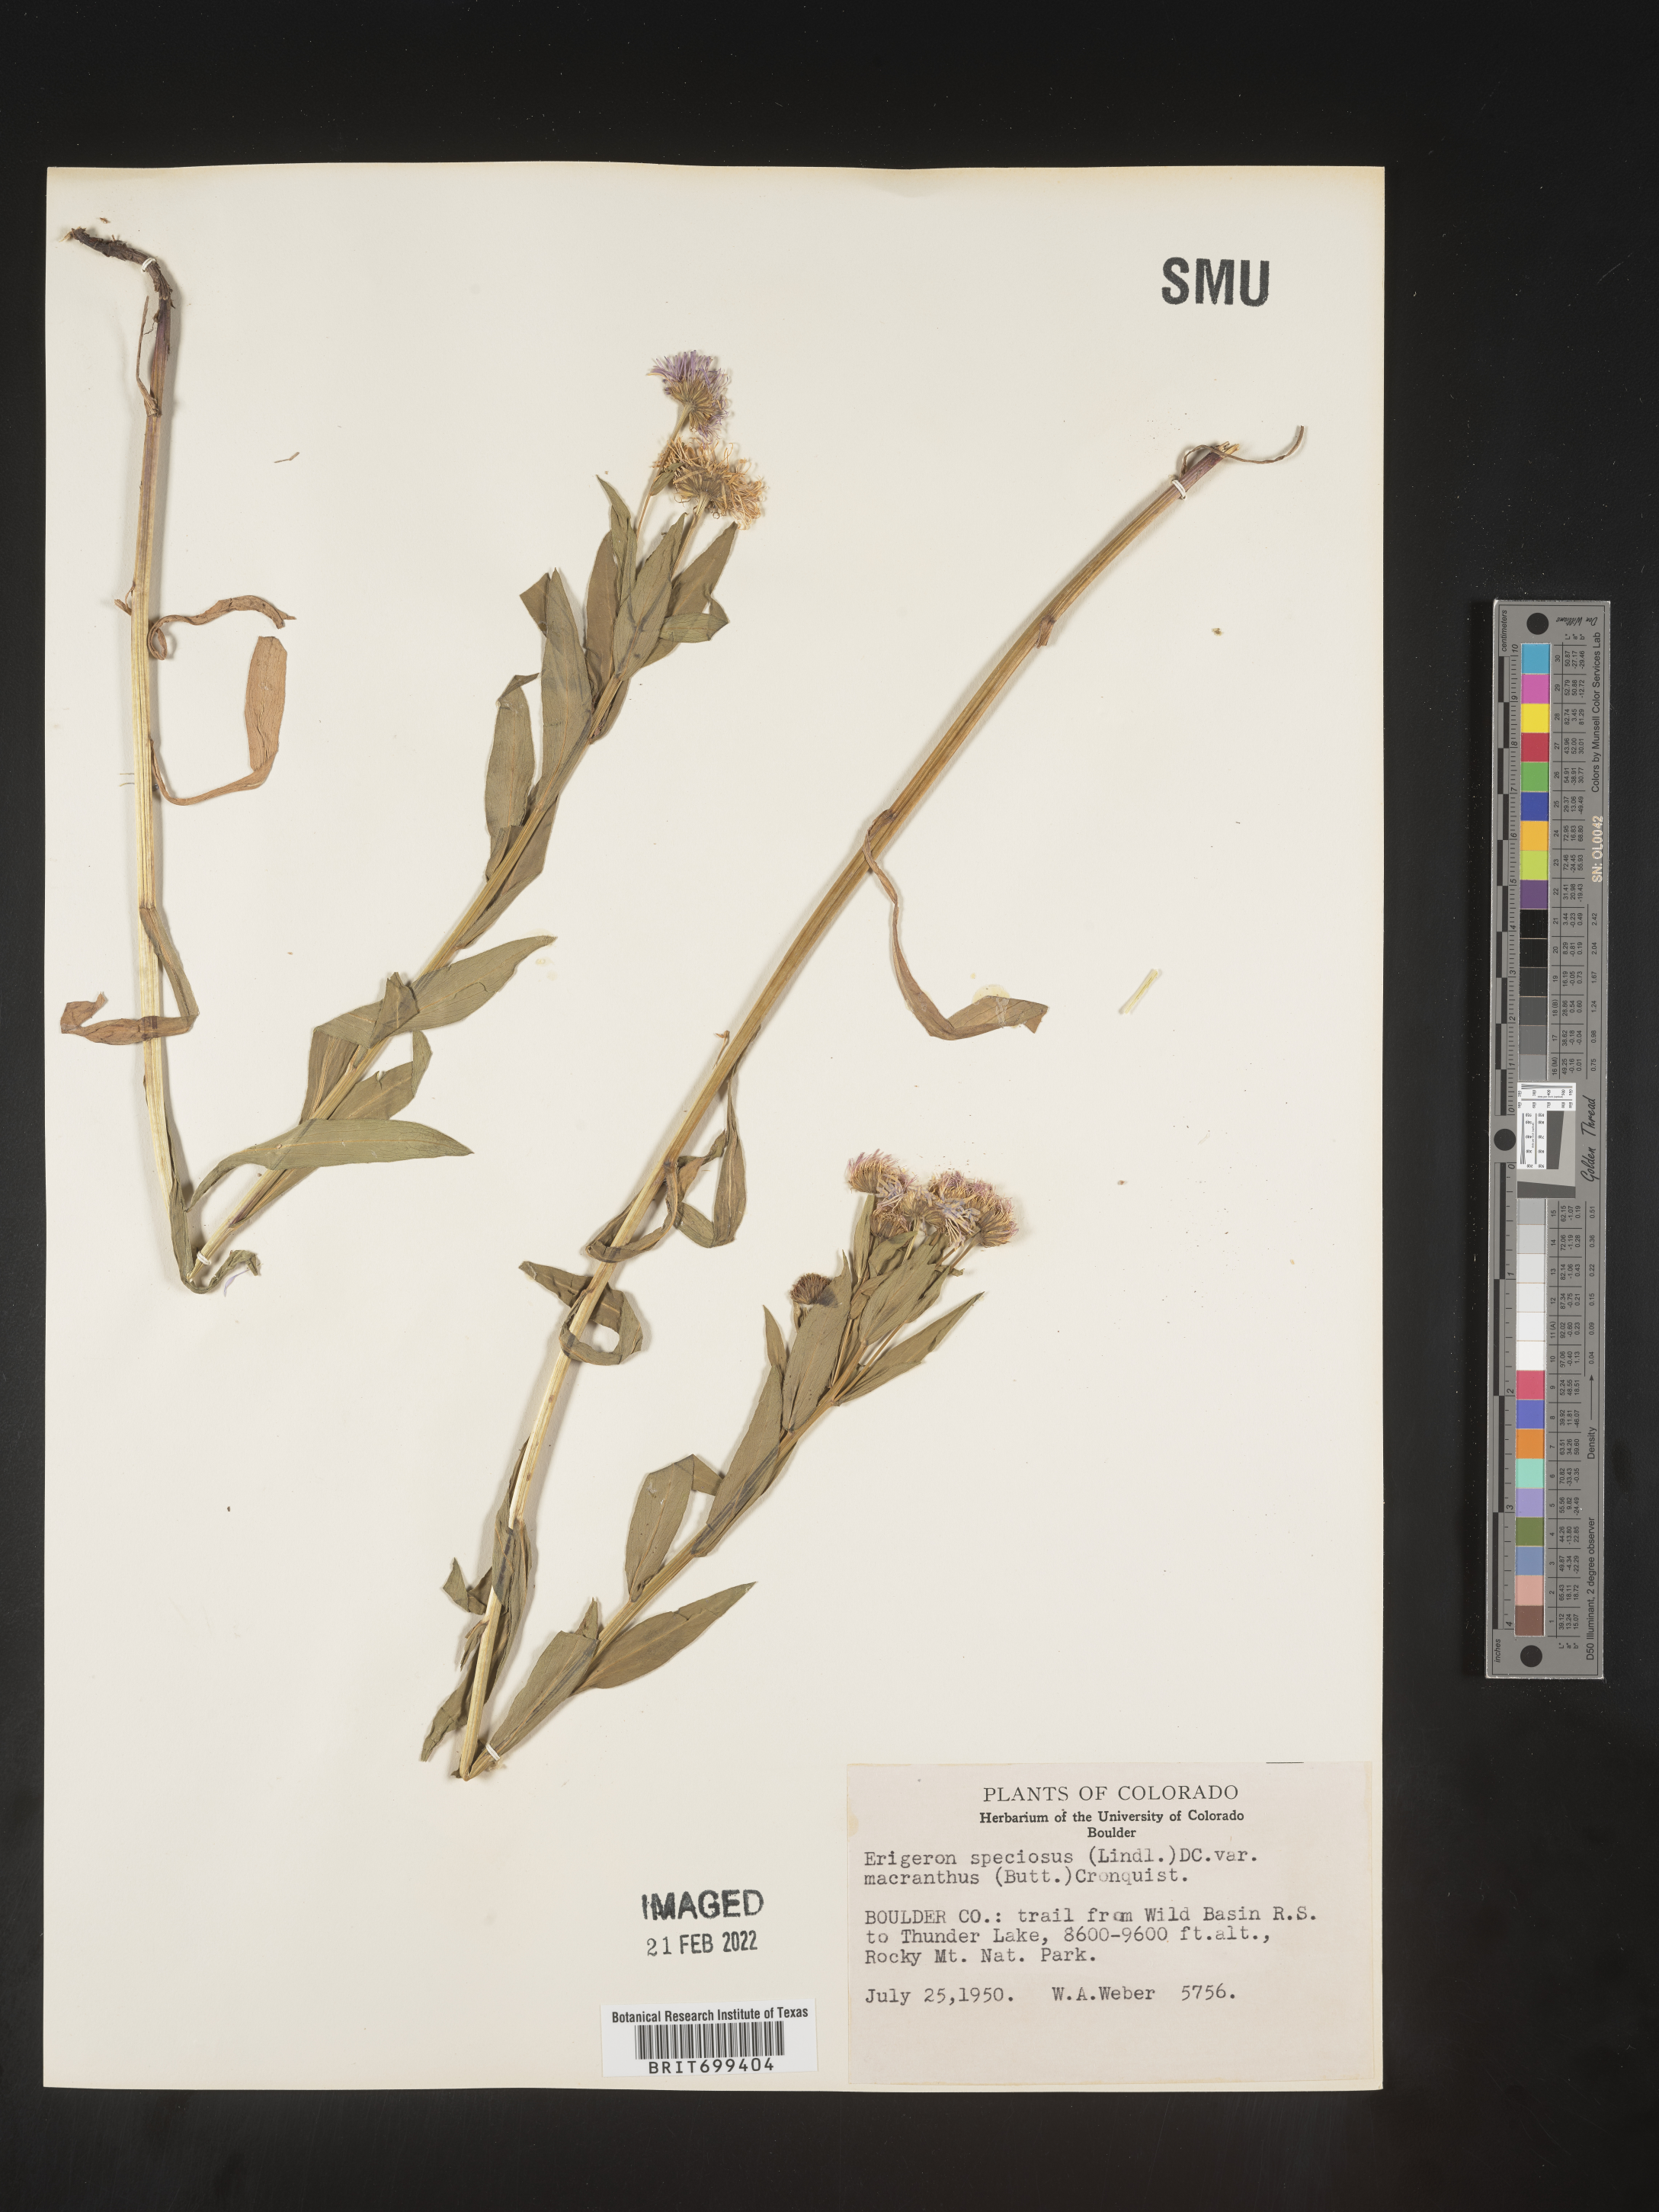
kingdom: Plantae
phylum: Tracheophyta
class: Magnoliopsida
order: Asterales
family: Asteraceae
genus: Erigeron
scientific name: Erigeron speciosus
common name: Aspen fleabane
